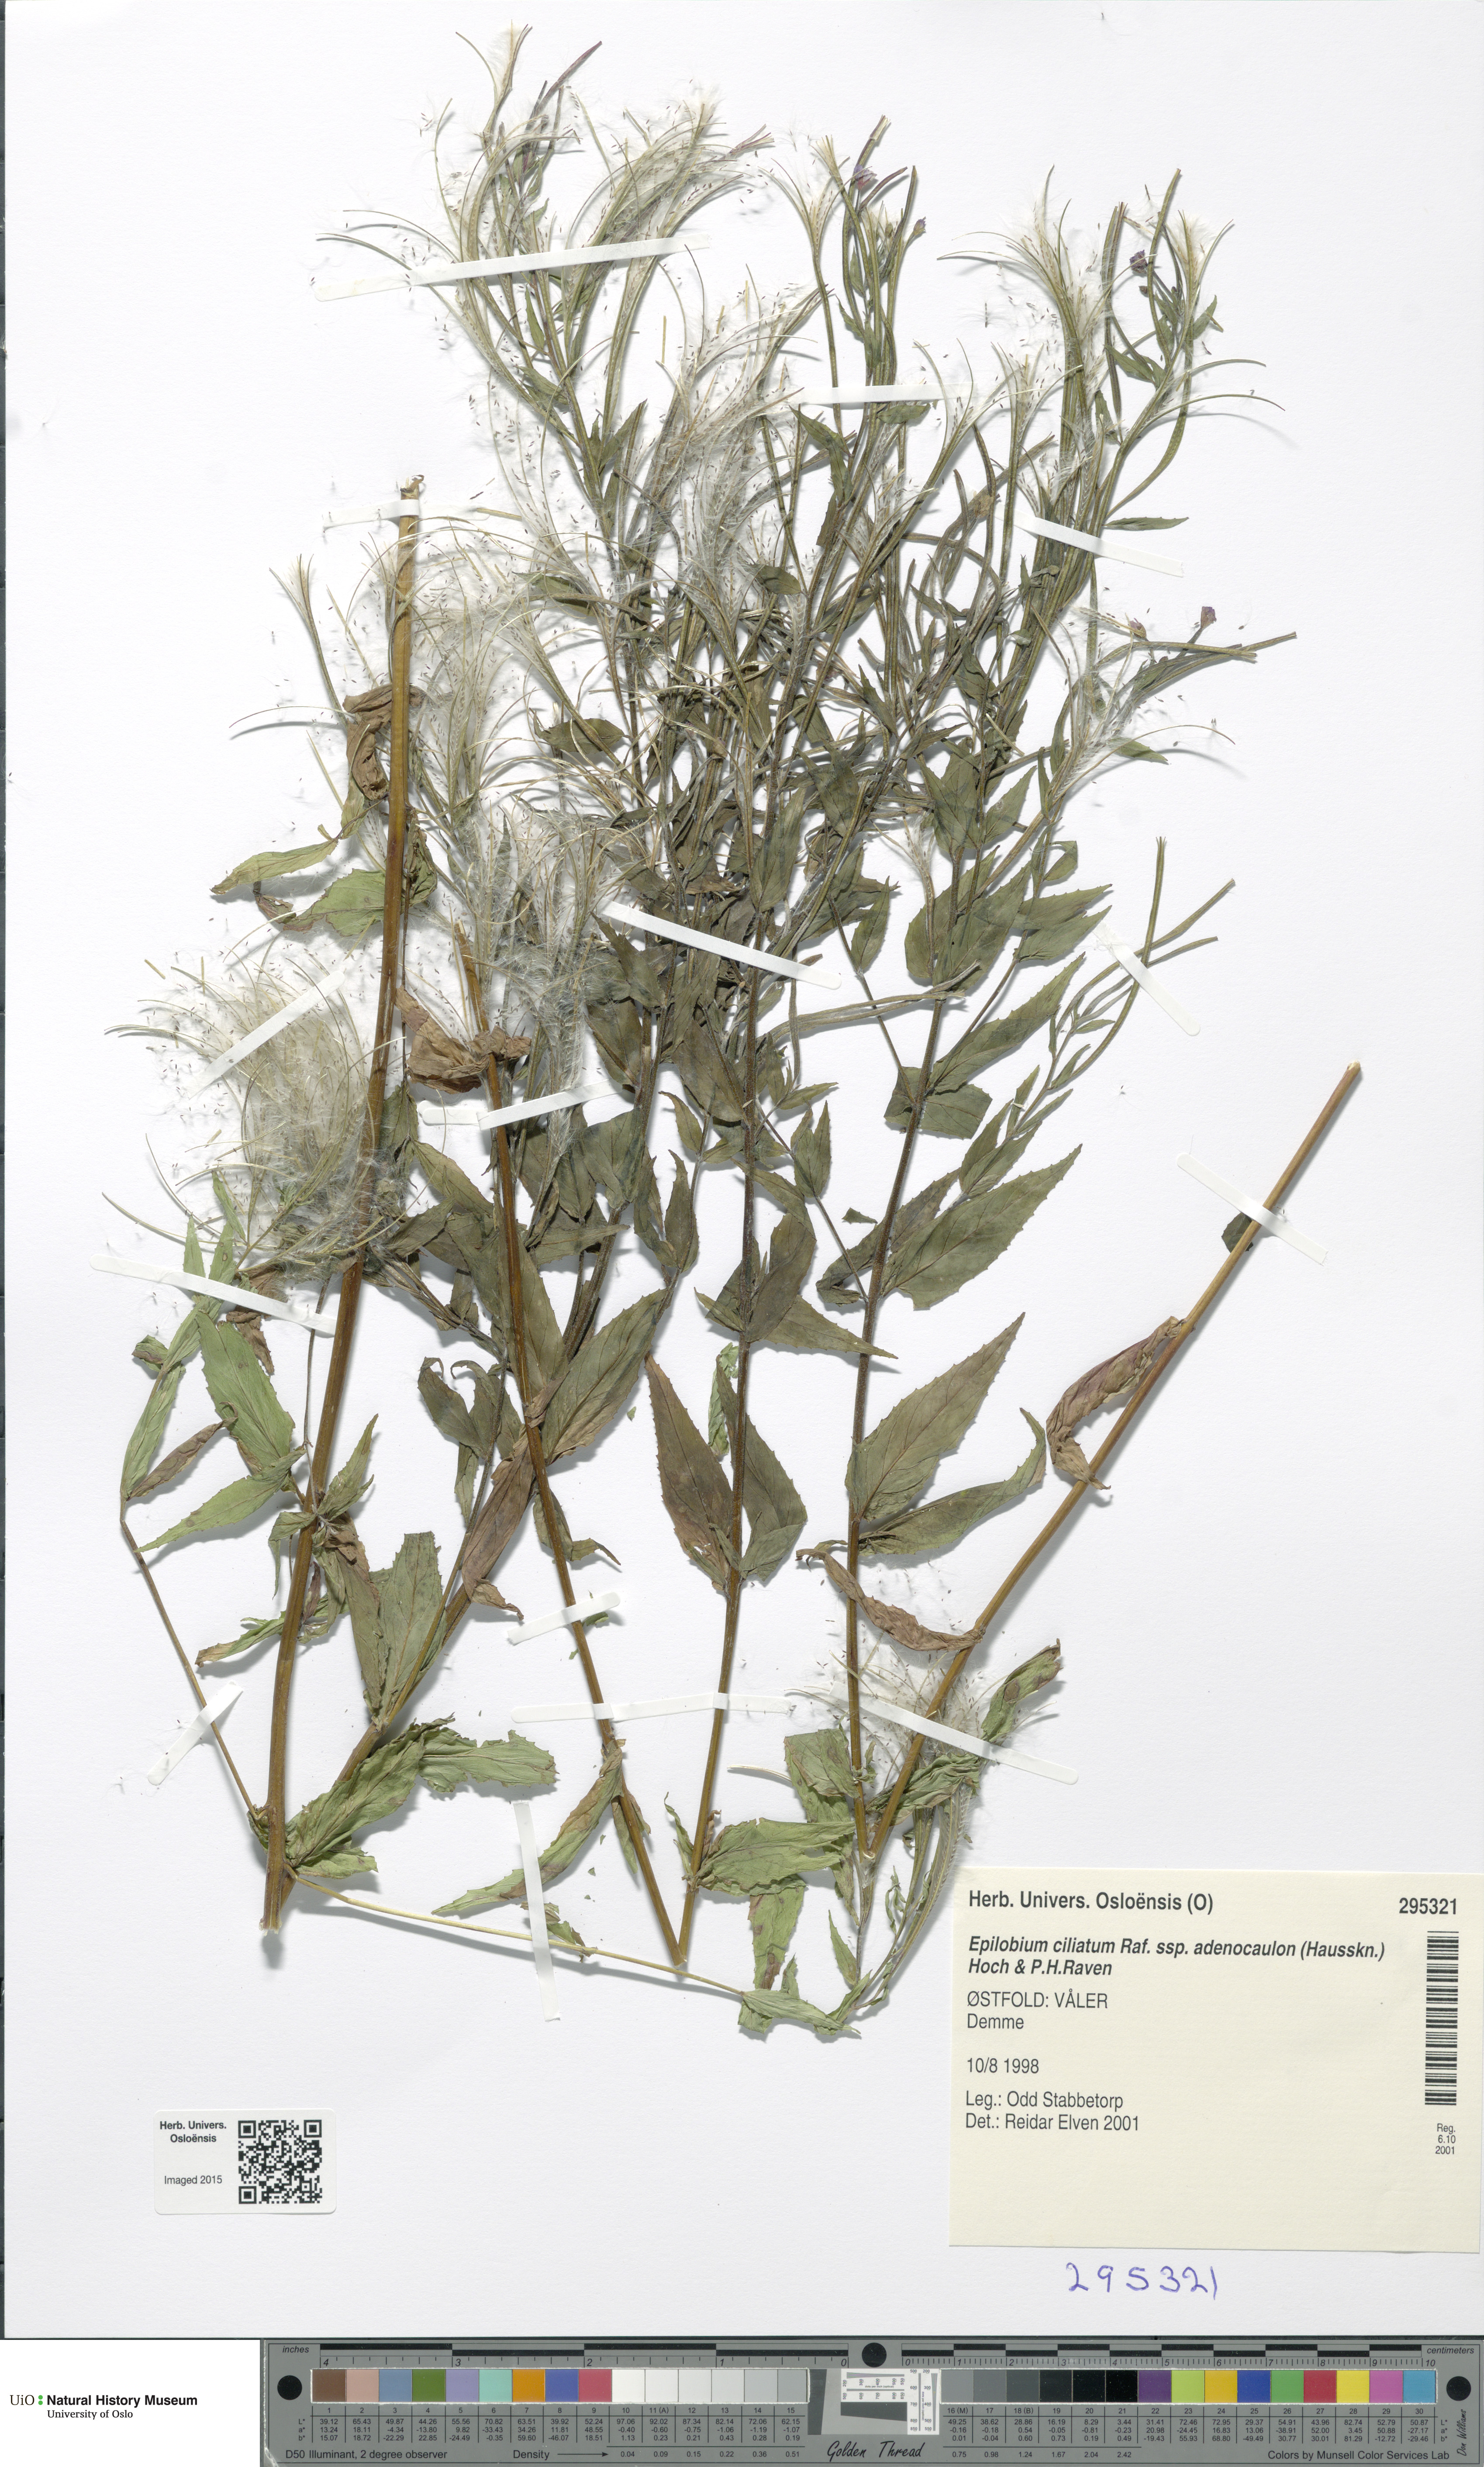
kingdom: Plantae
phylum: Tracheophyta
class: Magnoliopsida
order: Myrtales
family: Onagraceae
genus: Epilobium
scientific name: Epilobium ciliatum
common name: American willowherb
